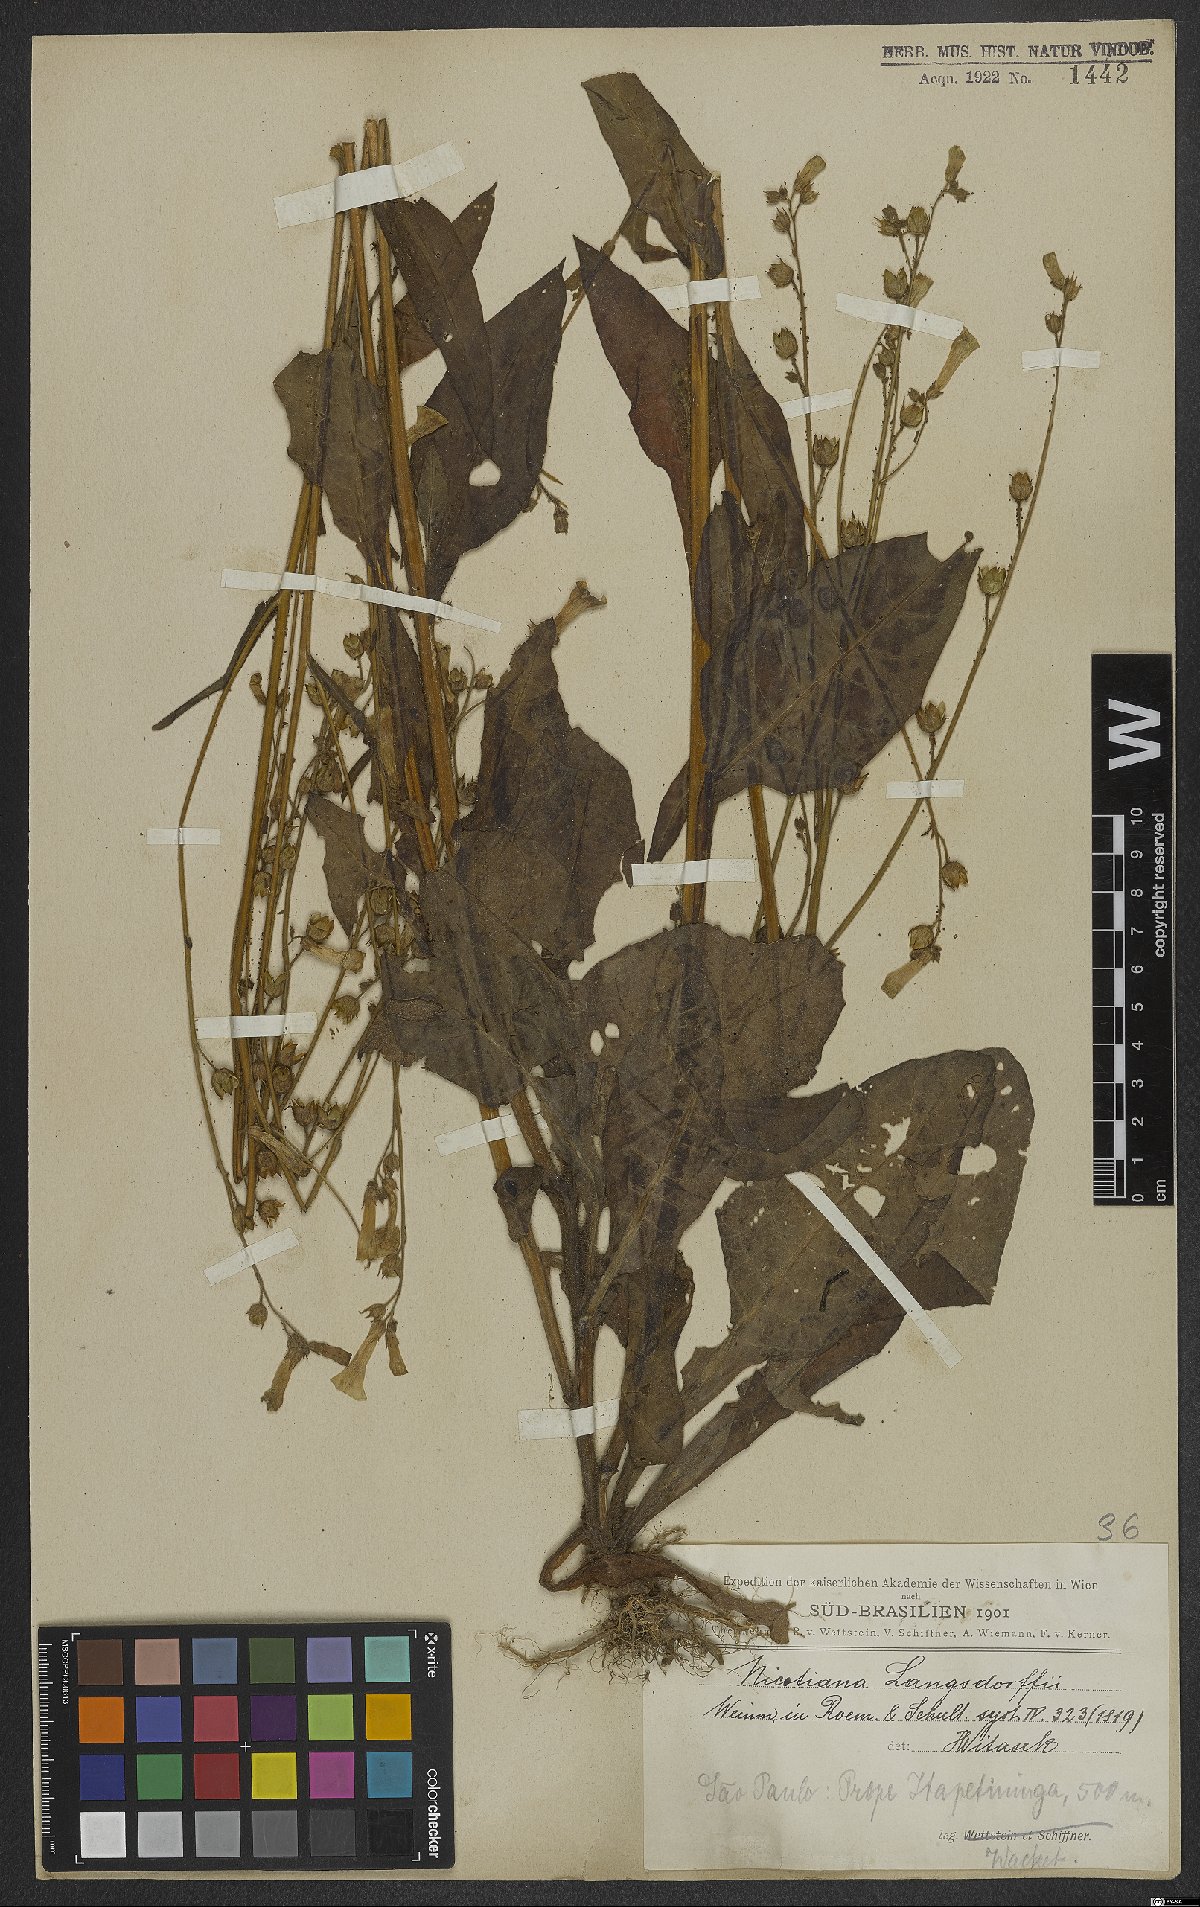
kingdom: Plantae
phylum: Tracheophyta
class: Magnoliopsida
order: Solanales
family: Solanaceae
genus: Nicotiana
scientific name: Nicotiana langsdorffii
